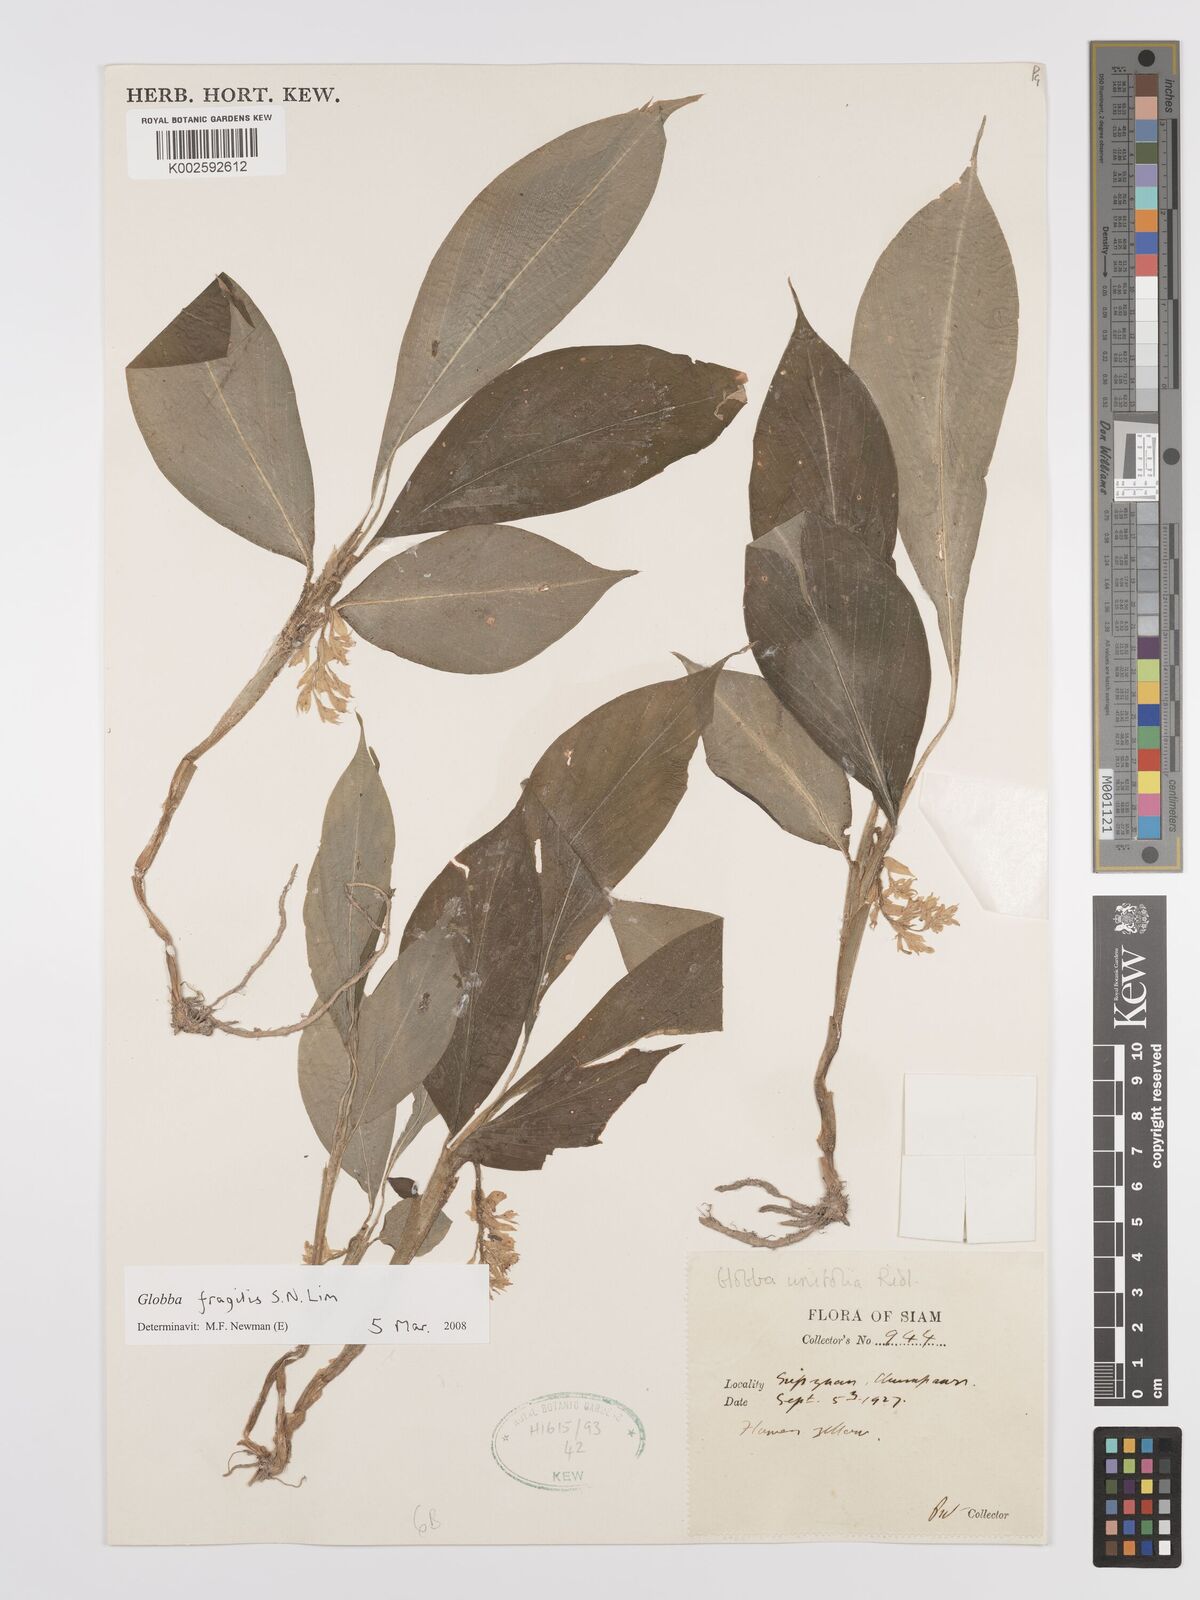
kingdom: Plantae
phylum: Tracheophyta
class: Liliopsida
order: Zingiberales
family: Zingiberaceae
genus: Globba
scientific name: Globba fragilis
